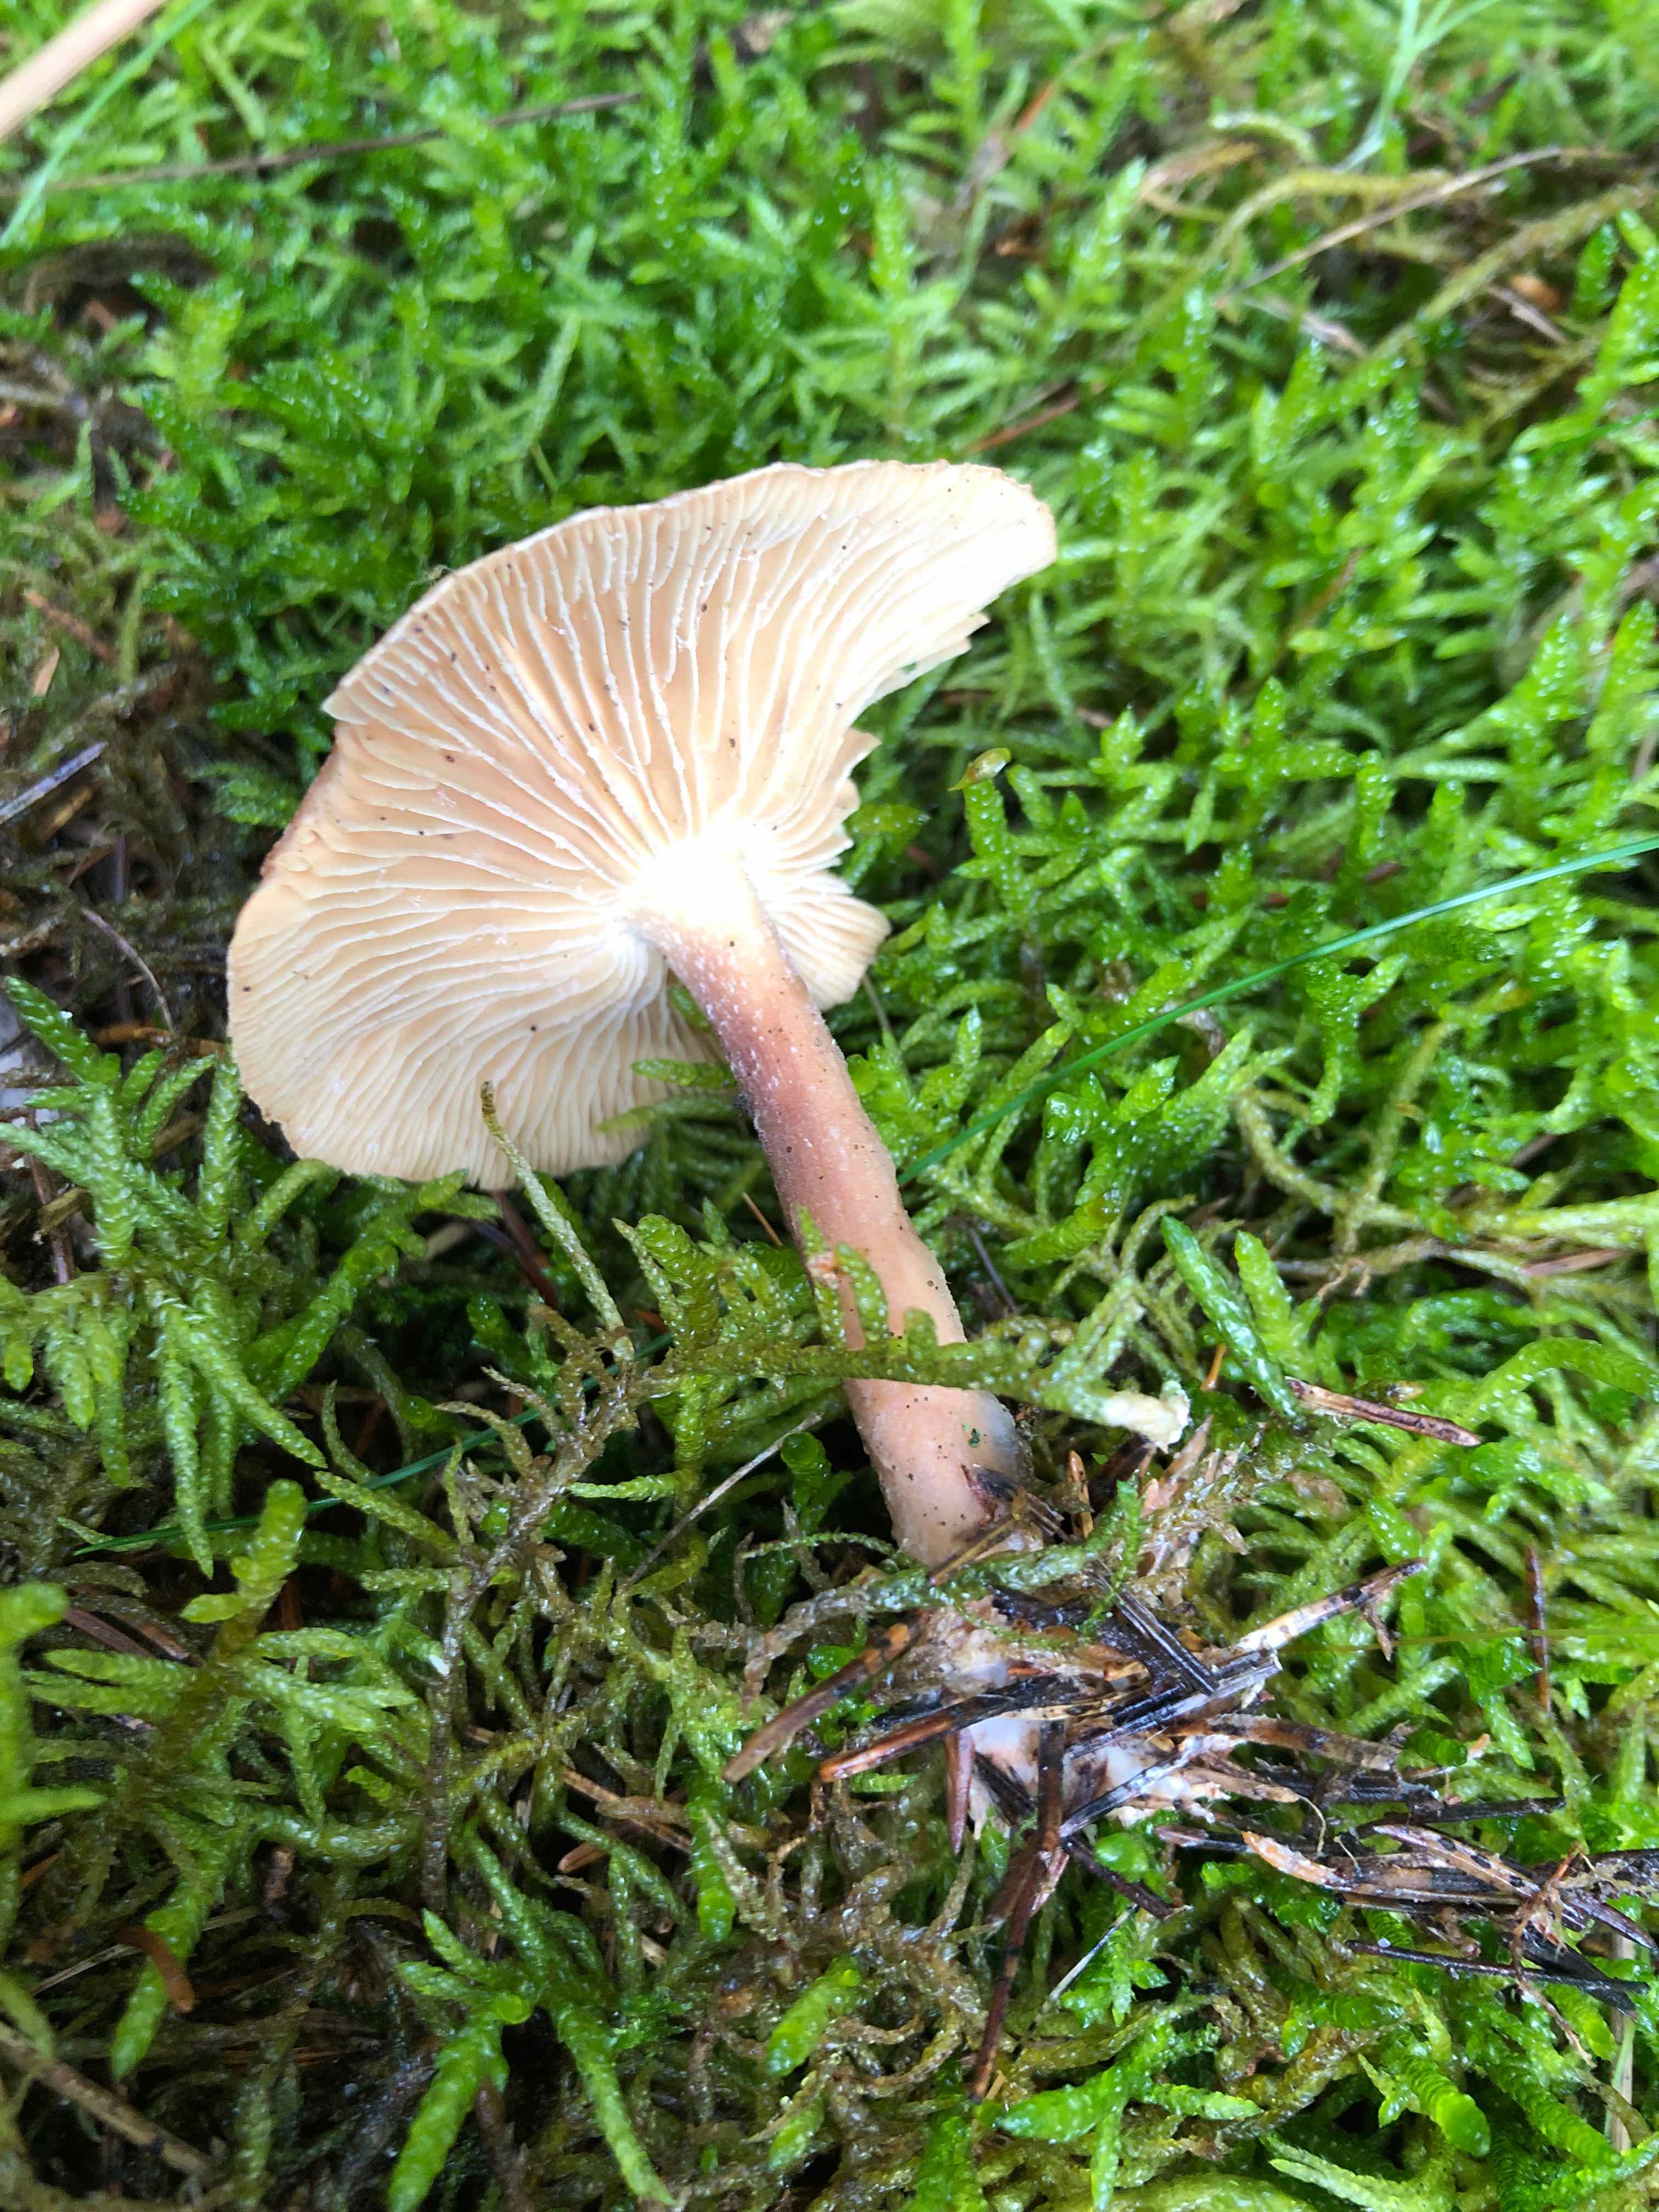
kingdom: Fungi
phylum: Basidiomycota
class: Agaricomycetes
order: Agaricales
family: Omphalotaceae
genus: Collybiopsis
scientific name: Collybiopsis peronata
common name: bestøvlet fladhat
